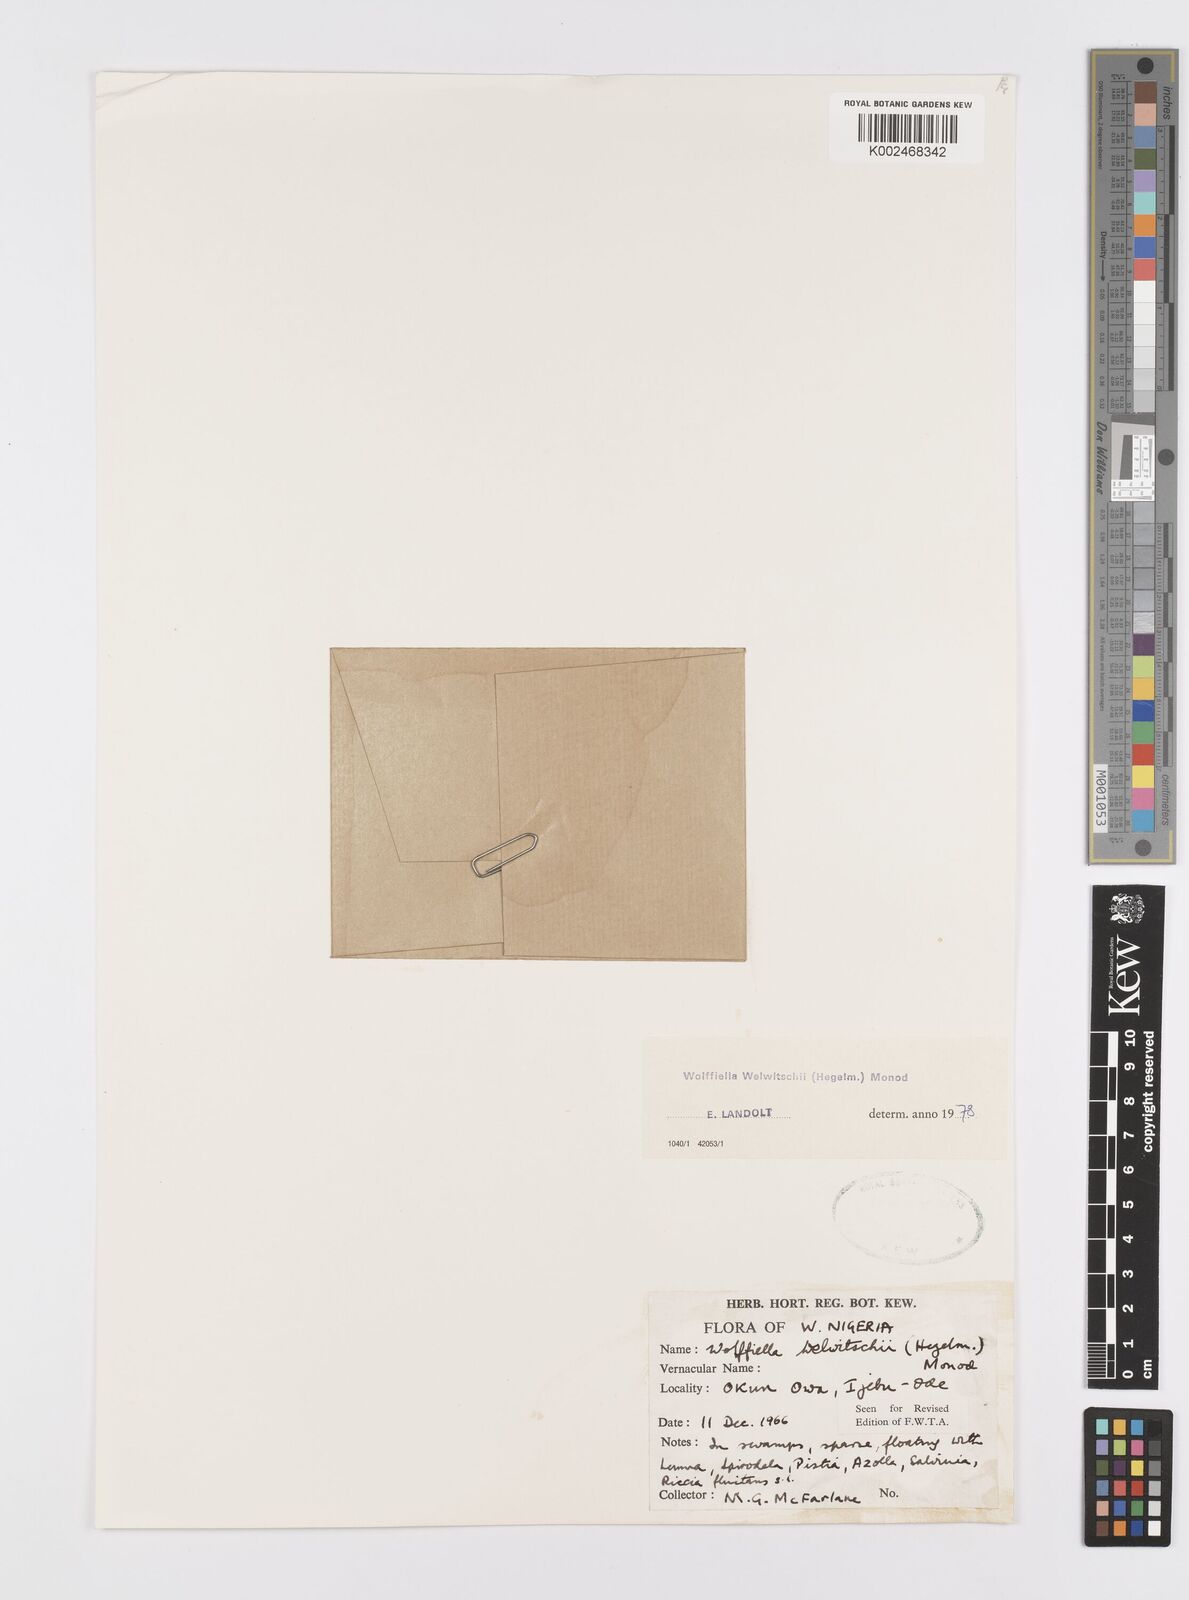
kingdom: Plantae
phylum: Tracheophyta
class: Liliopsida
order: Alismatales
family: Araceae
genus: Wolffiella
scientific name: Wolffiella welwitschii
